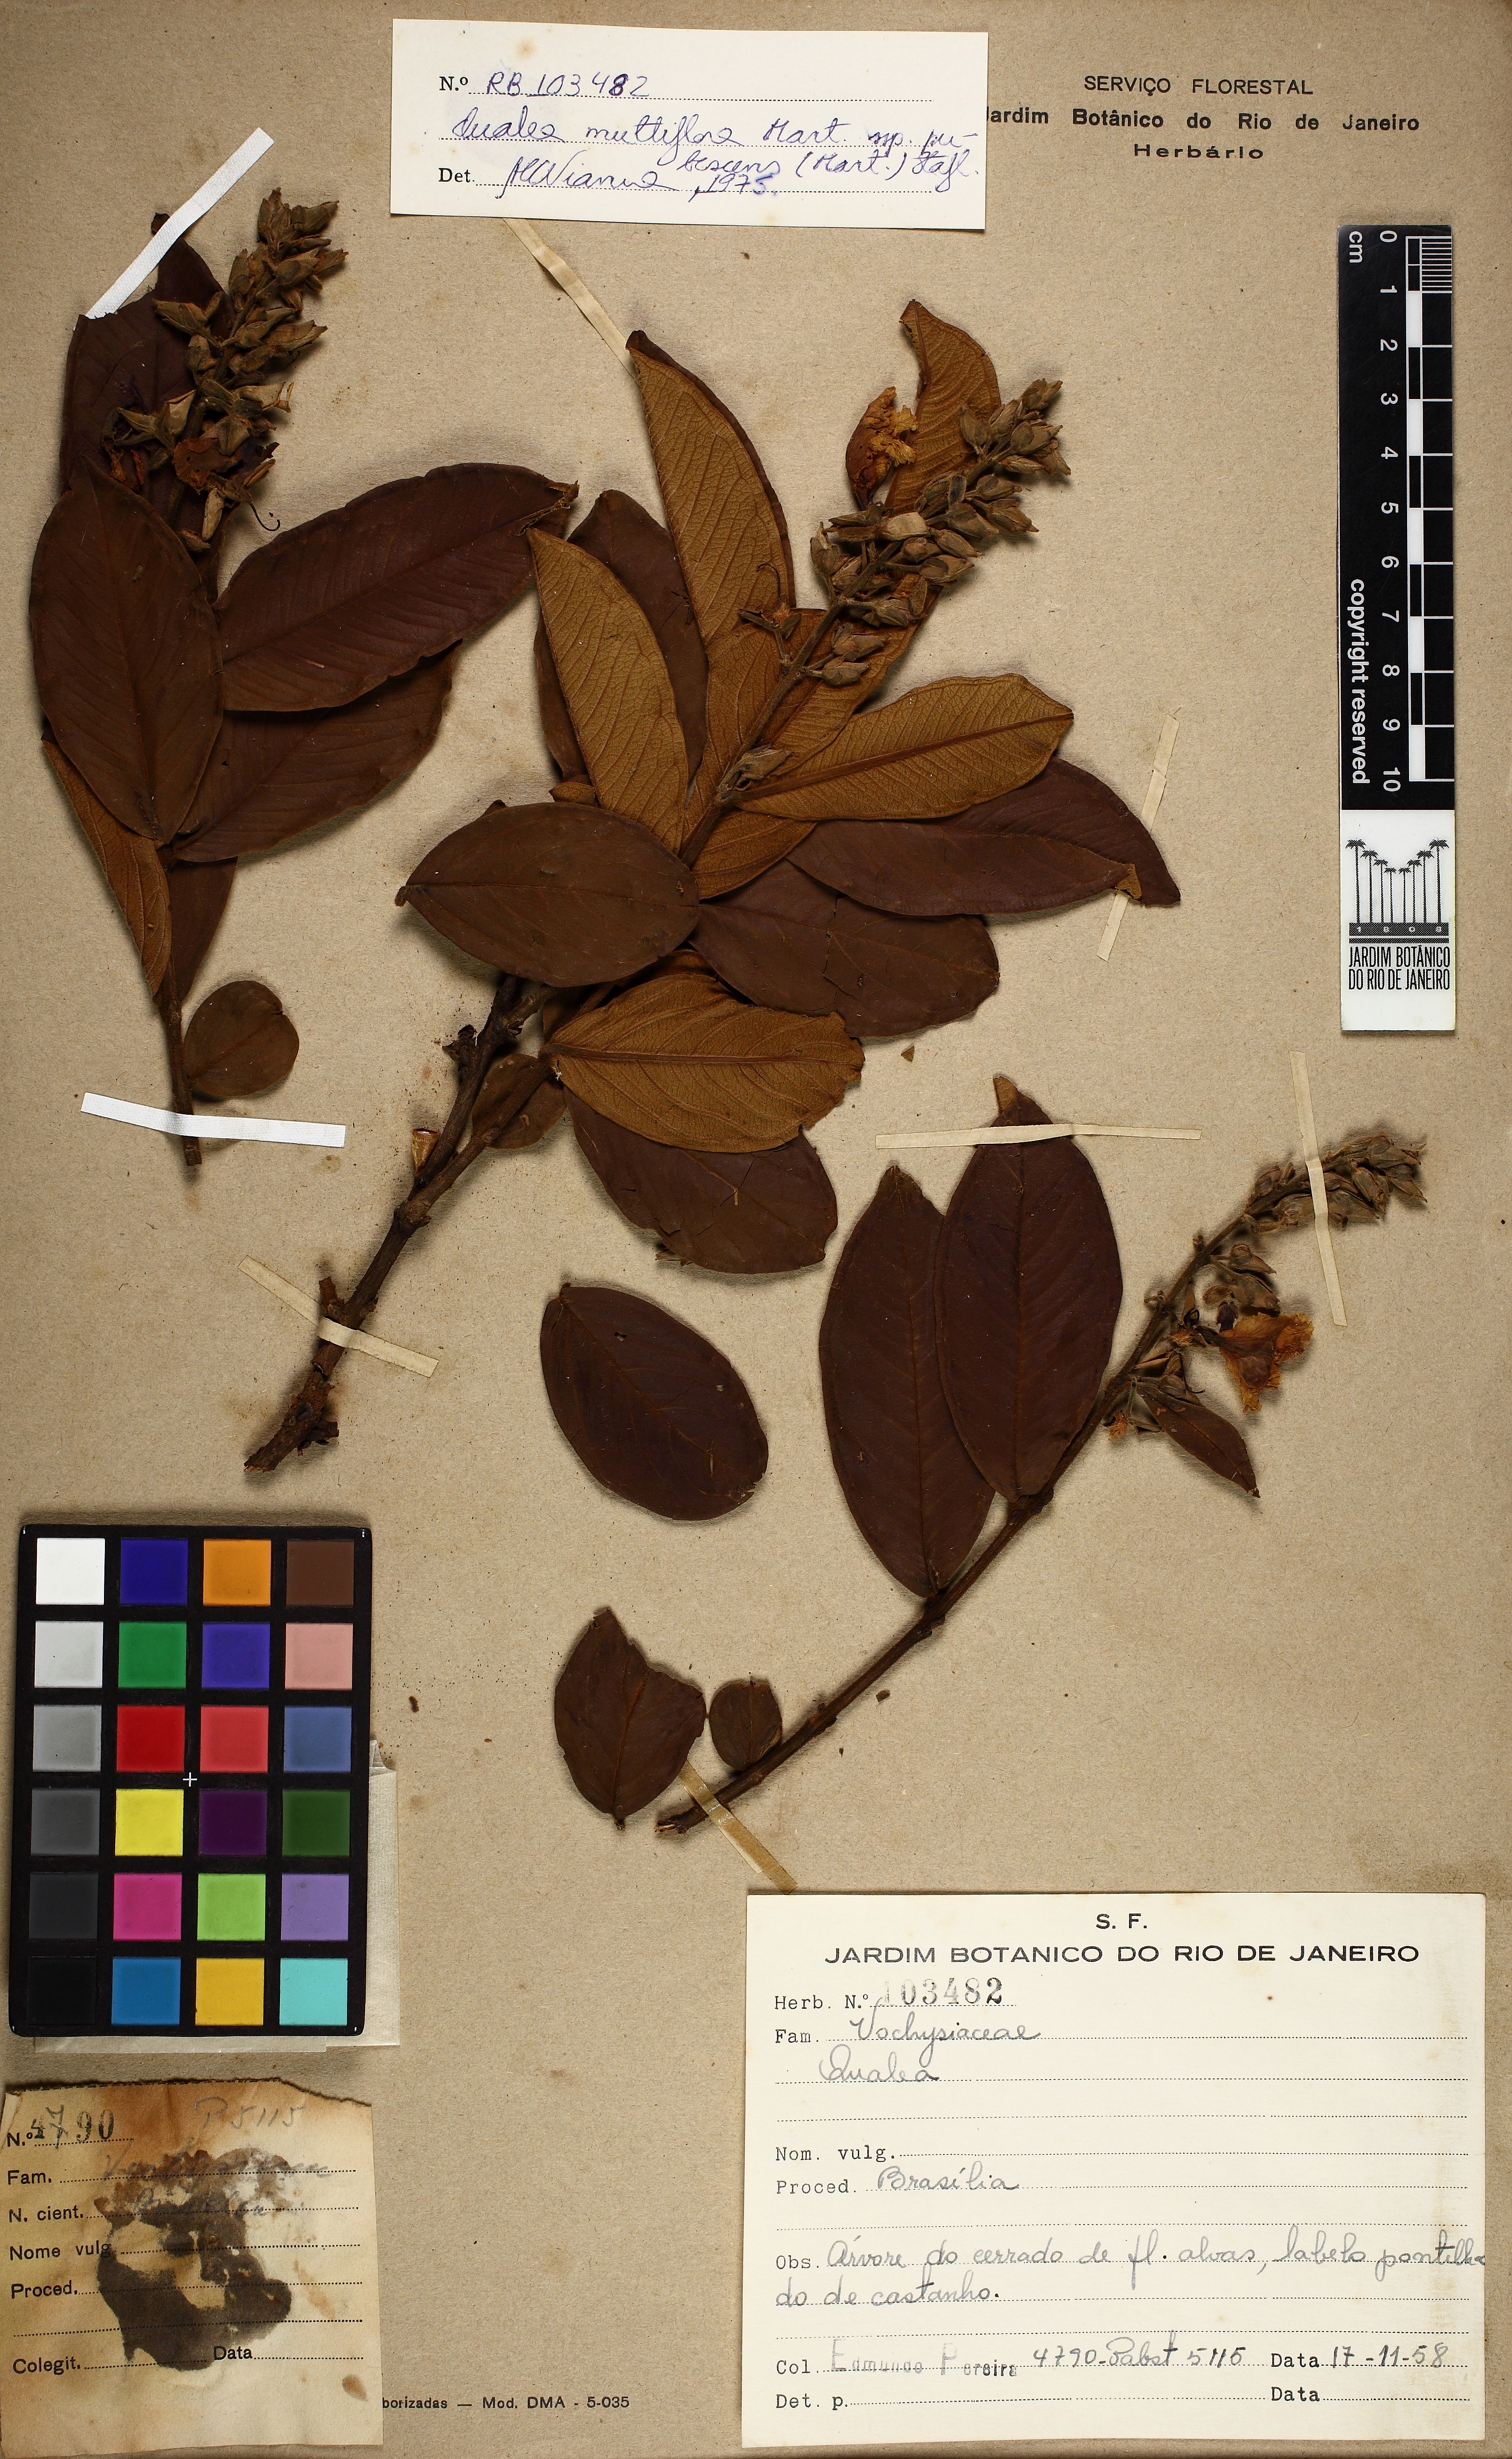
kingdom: Plantae
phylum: Tracheophyta
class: Magnoliopsida
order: Myrtales
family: Vochysiaceae
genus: Qualea
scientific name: Qualea multiflora
